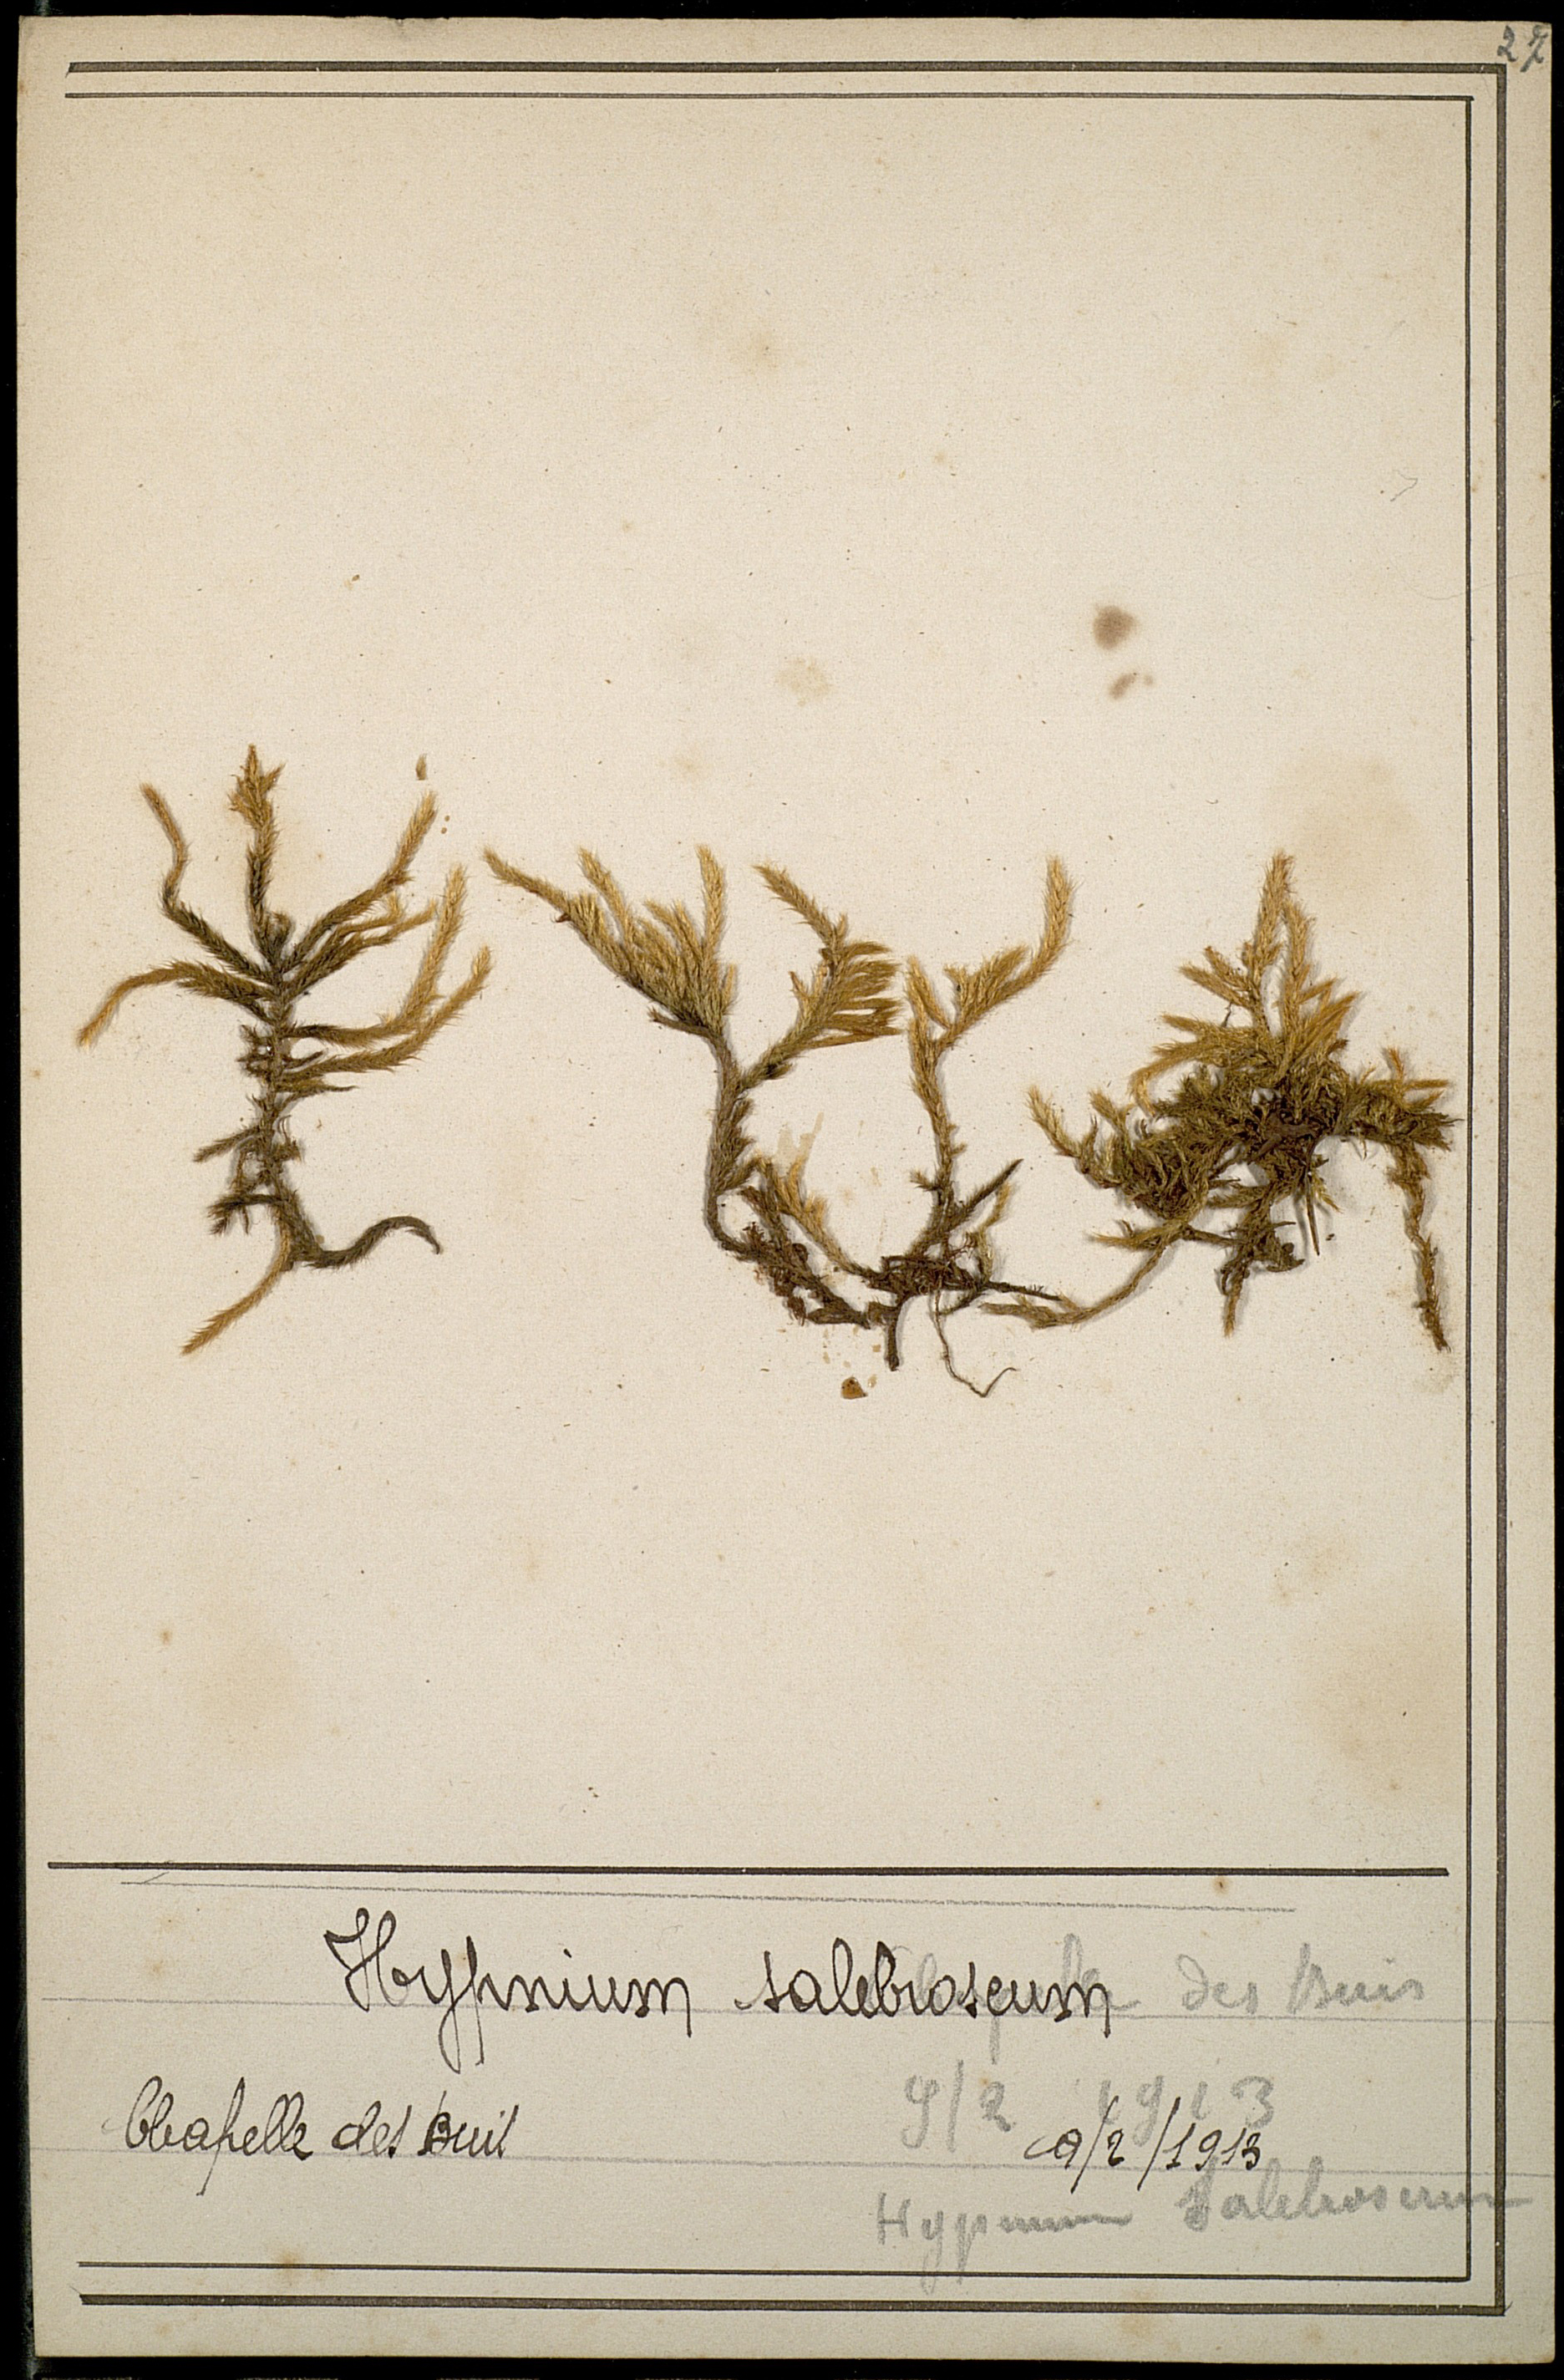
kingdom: Plantae
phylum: Bryophyta
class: Bryopsida
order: Hypnales
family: Brachytheciaceae
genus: Brachythecium
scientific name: Brachythecium salebrosum
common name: Smooth-stalk feather-moss
